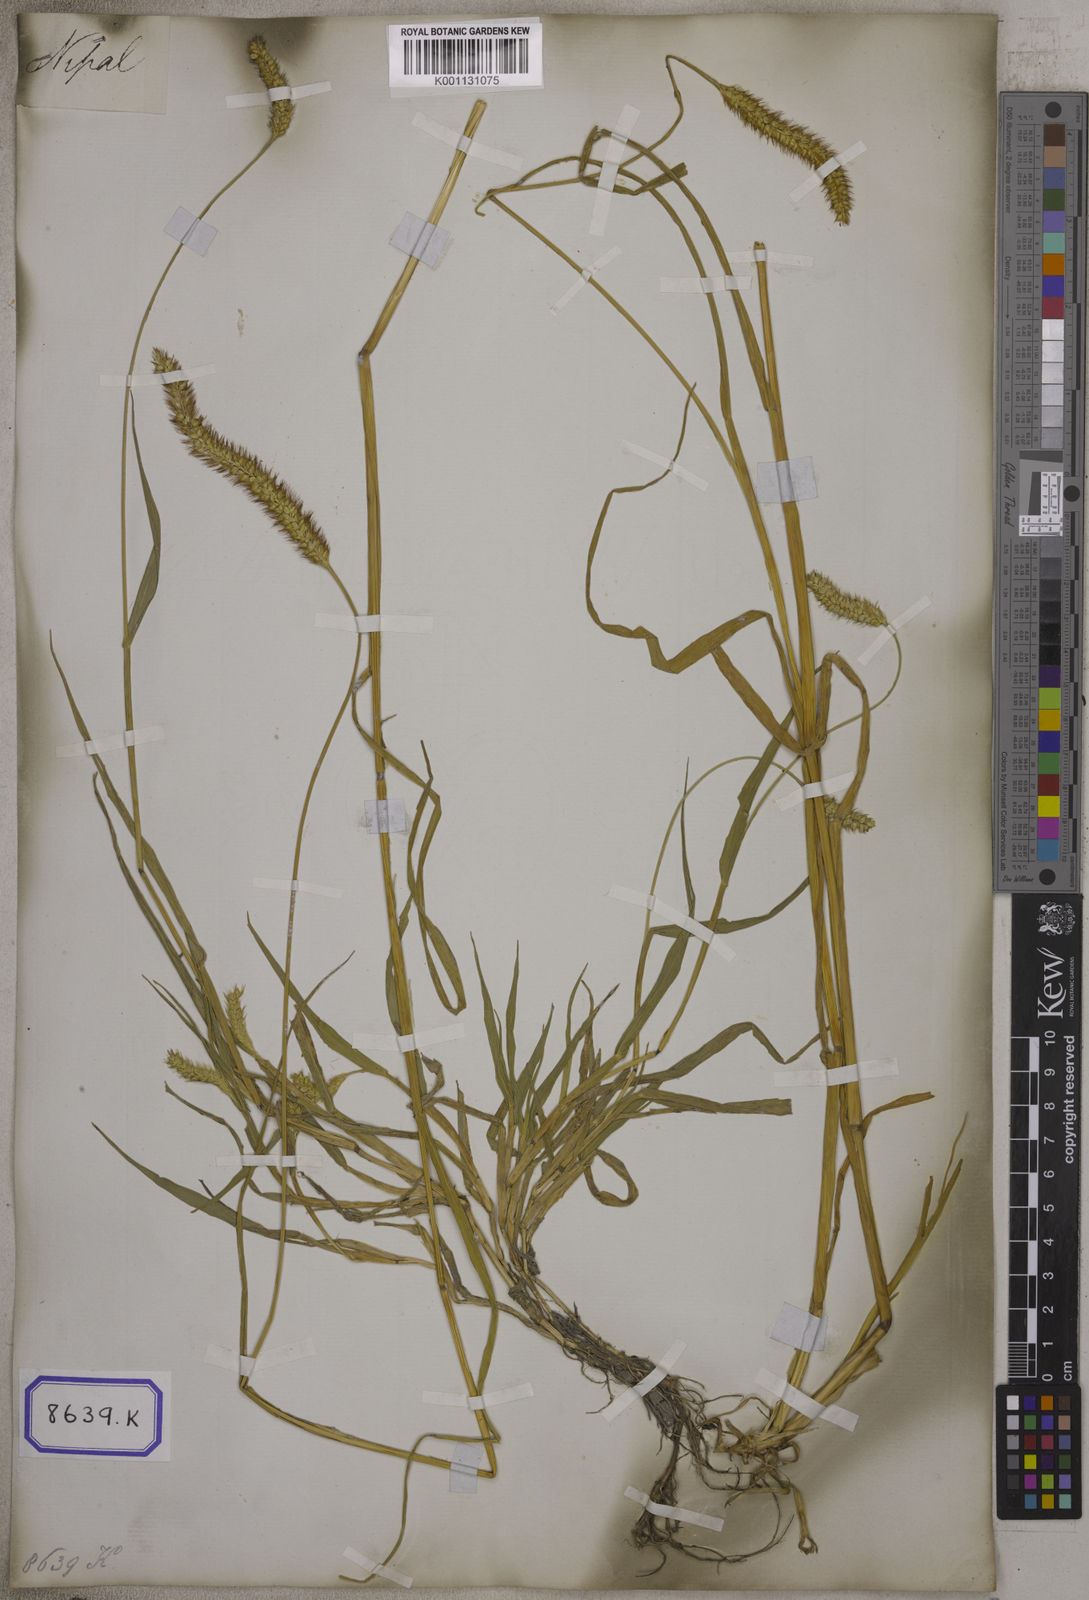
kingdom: Plantae
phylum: Tracheophyta
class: Liliopsida
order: Poales
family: Poaceae
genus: Cenchrus
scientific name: Cenchrus americanus
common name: Pearl millet
